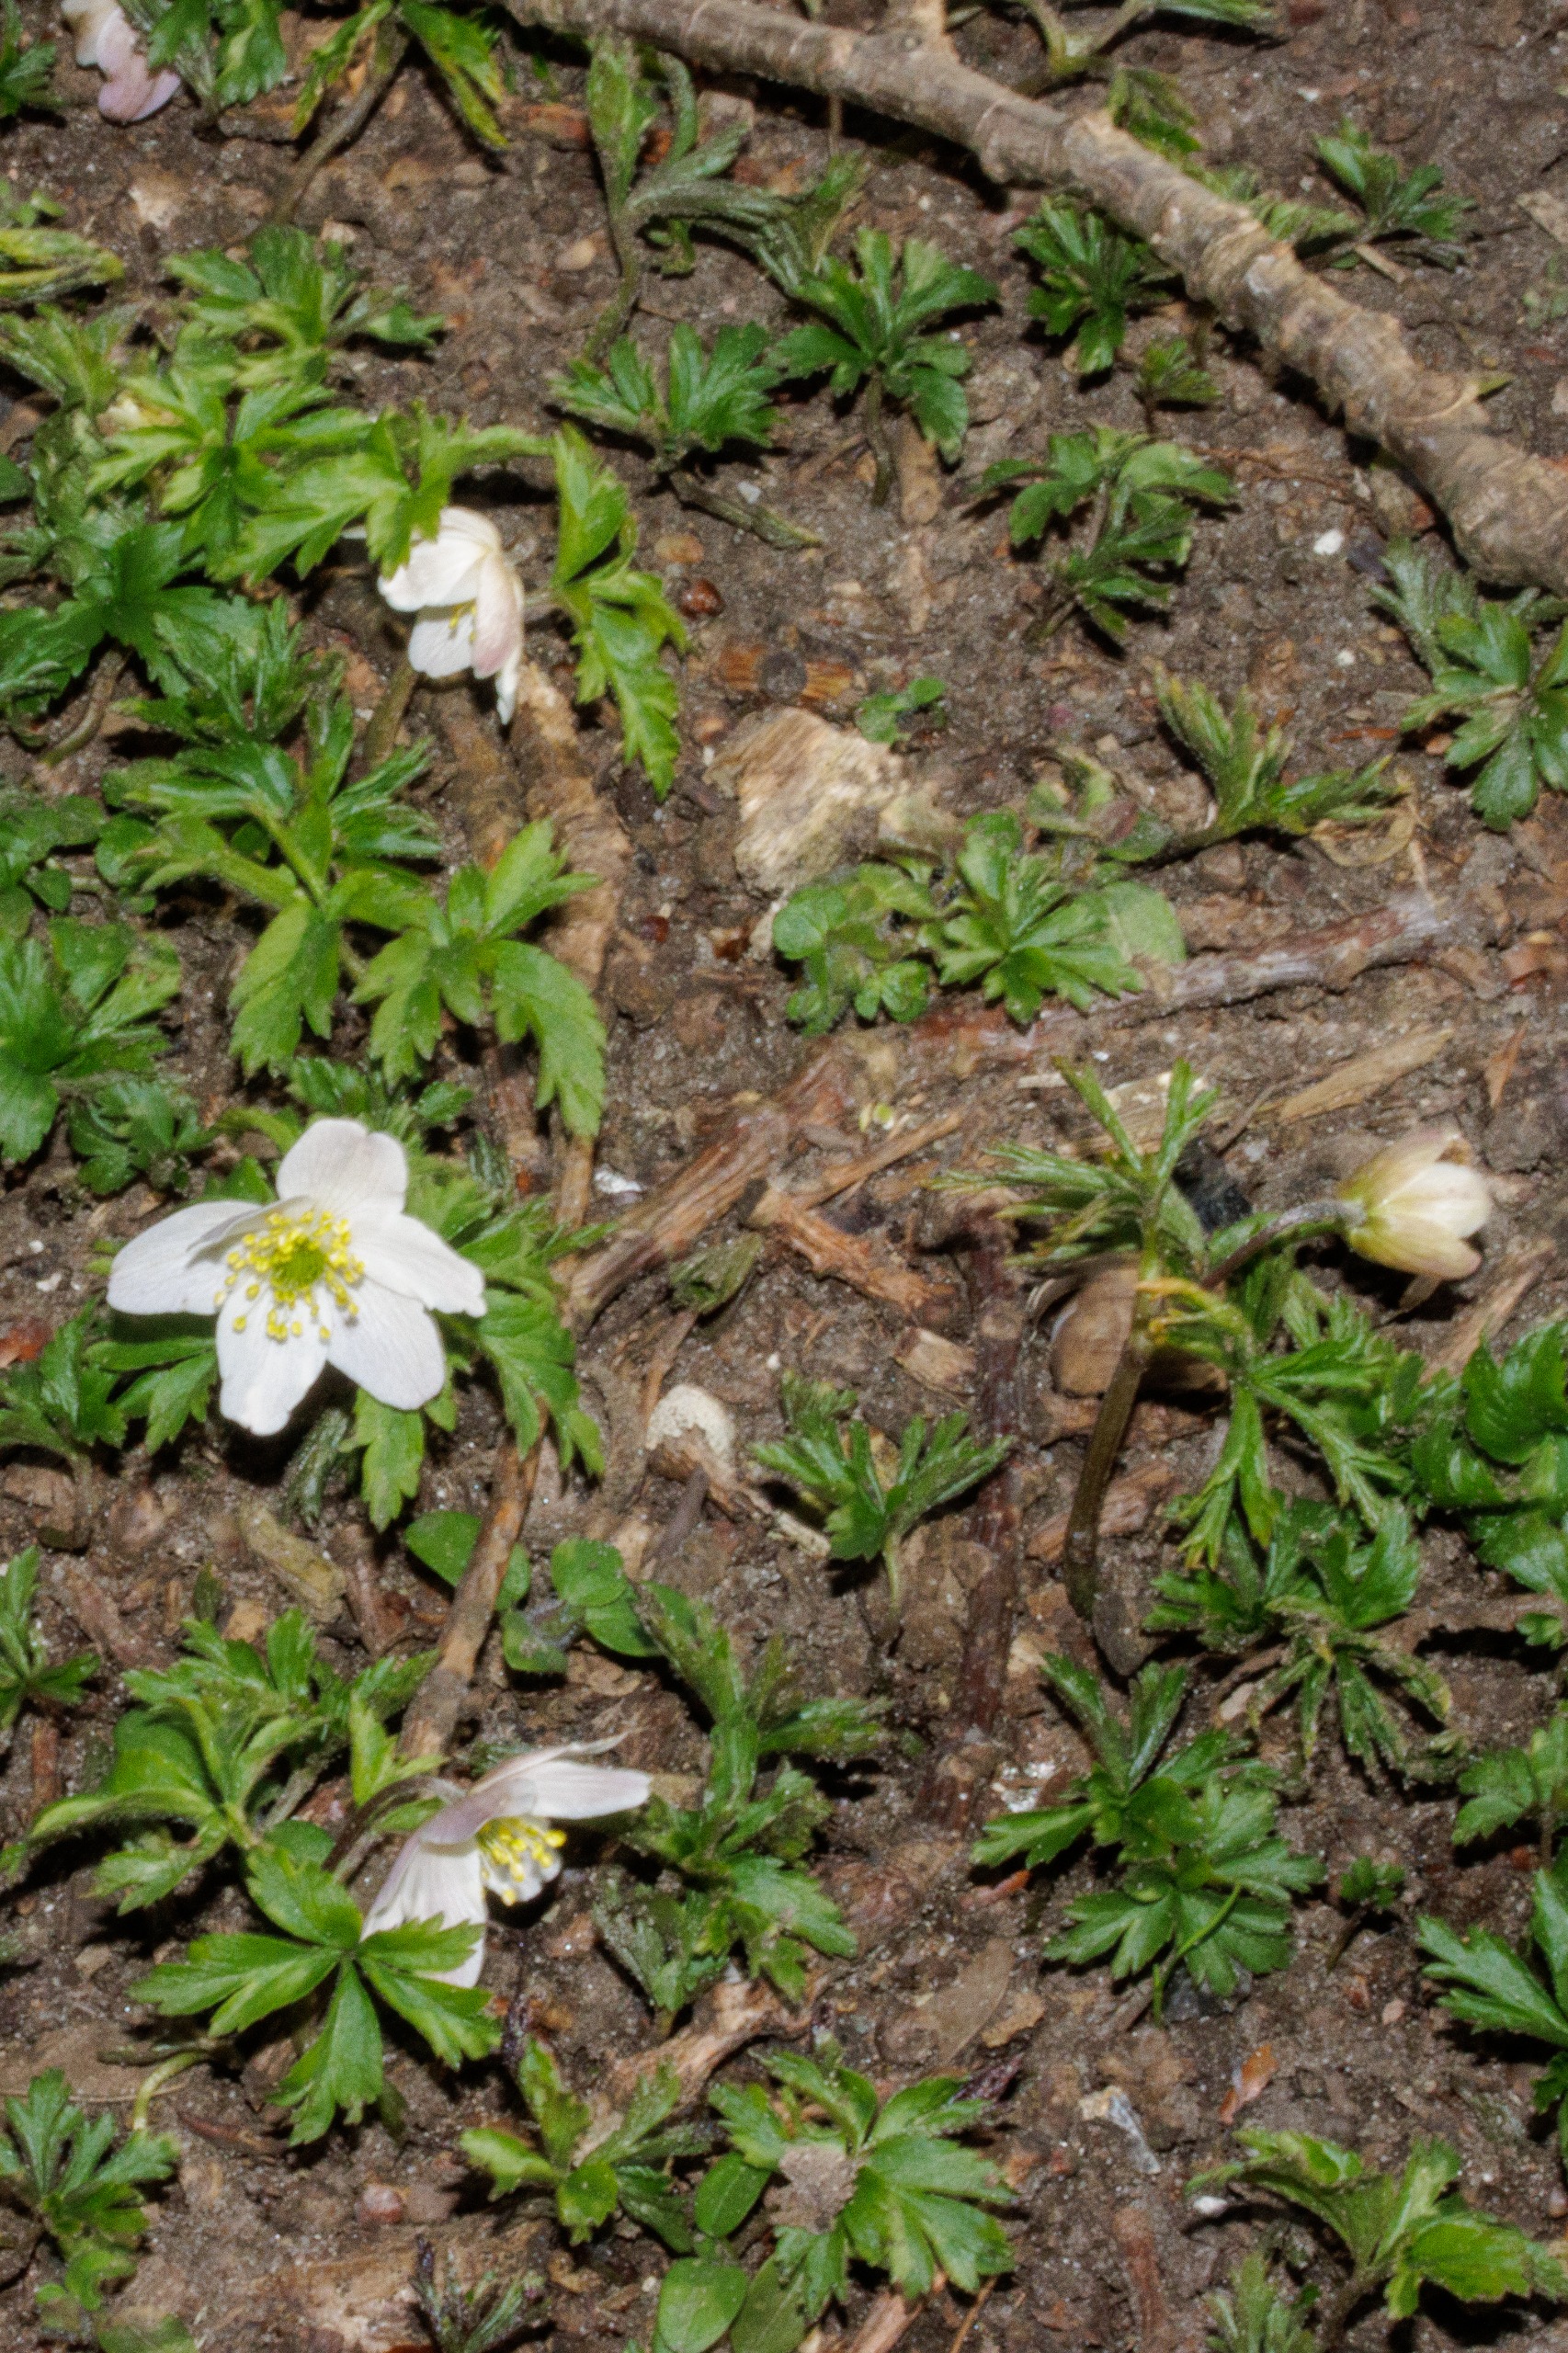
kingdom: Plantae
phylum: Tracheophyta
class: Magnoliopsida
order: Ranunculales
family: Ranunculaceae
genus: Anemone
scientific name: Anemone nemorosa
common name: Hvid anemone
